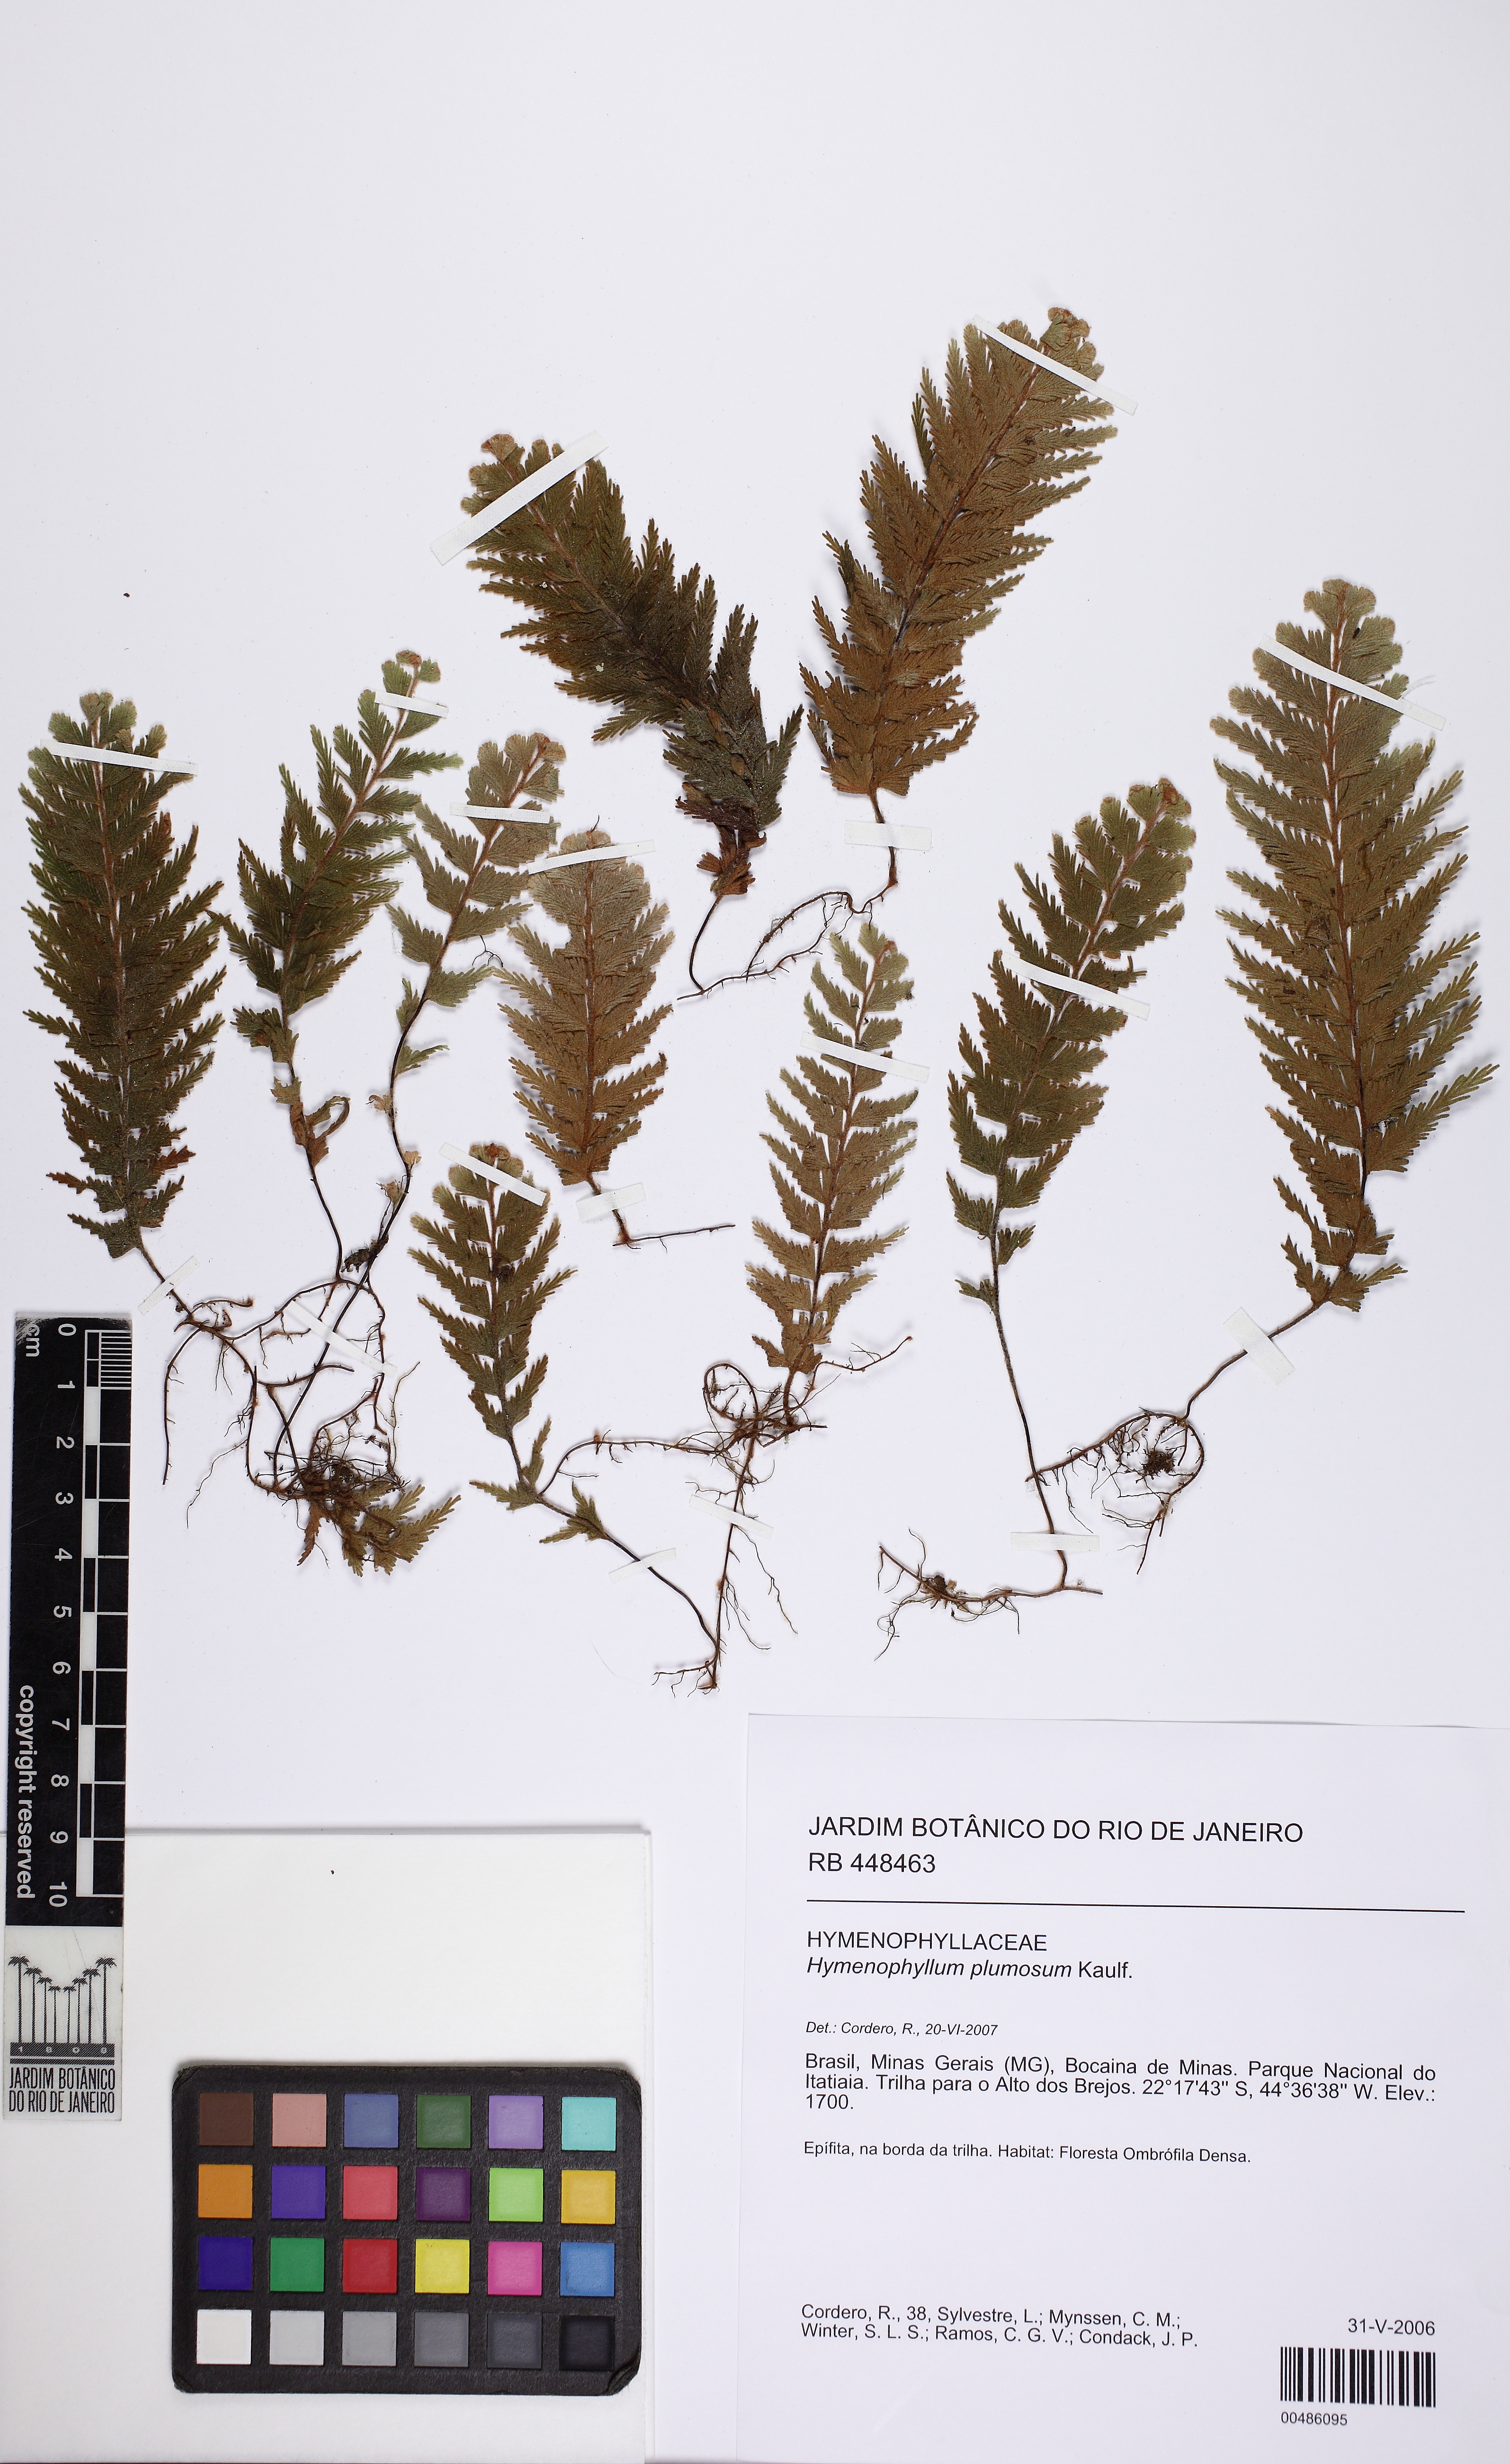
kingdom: Plantae
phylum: Tracheophyta
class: Polypodiopsida
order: Hymenophyllales
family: Hymenophyllaceae
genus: Hymenophyllum
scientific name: Hymenophyllum plumosum
